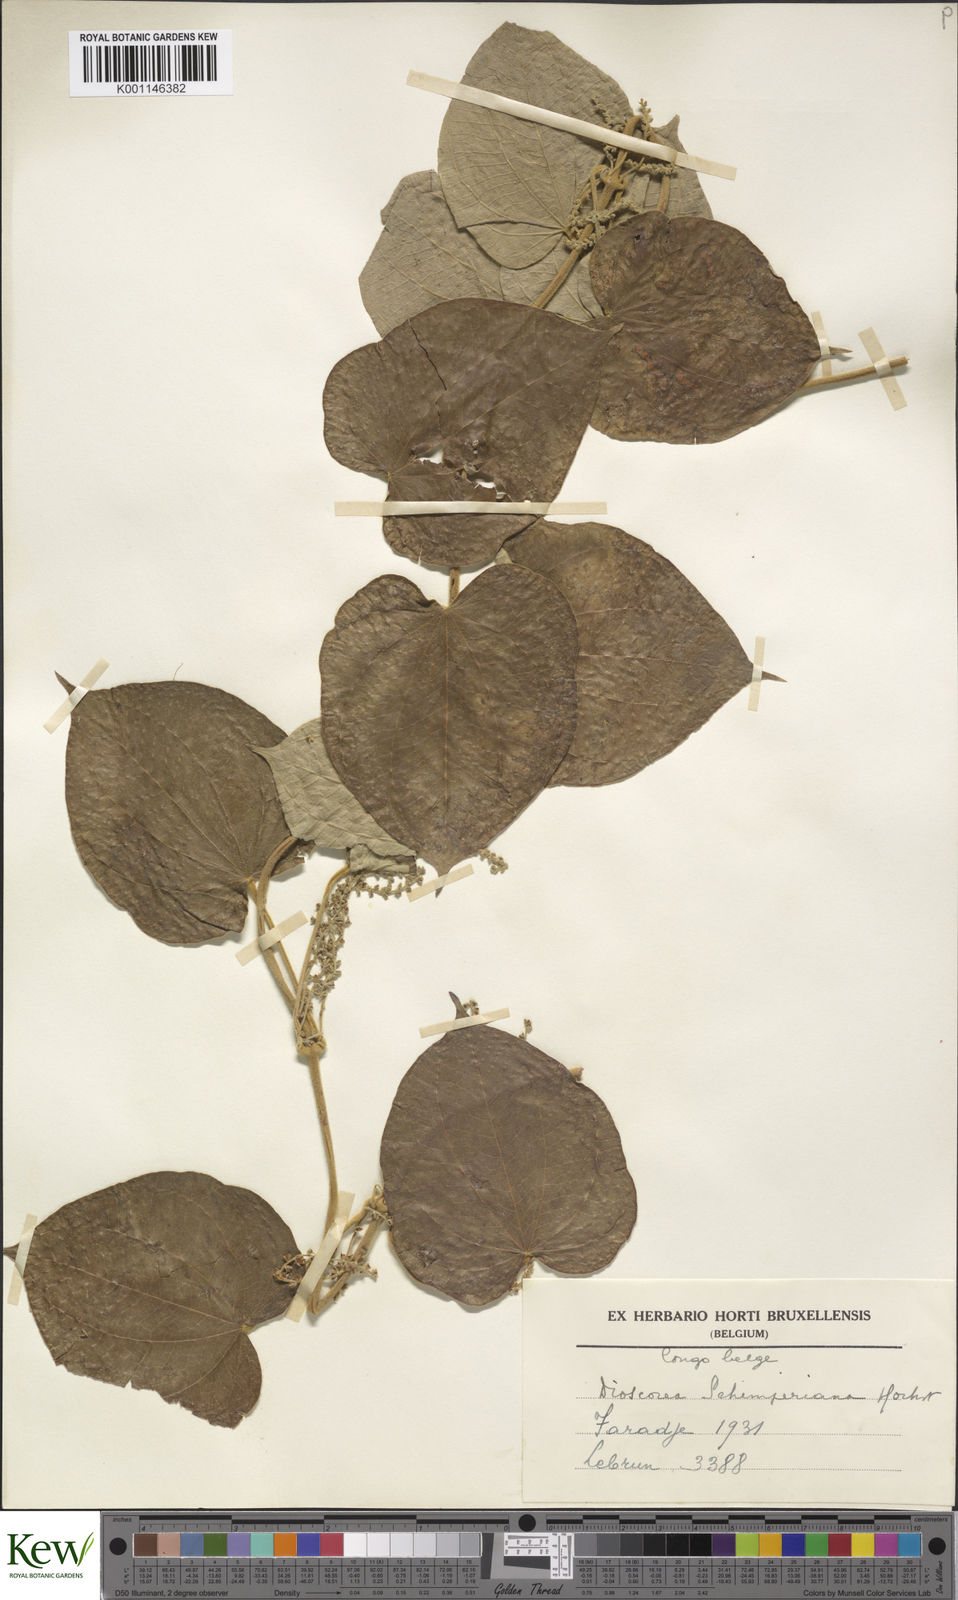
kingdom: Plantae
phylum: Tracheophyta
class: Liliopsida
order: Dioscoreales
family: Dioscoreaceae
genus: Dioscorea
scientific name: Dioscorea schimperiana
